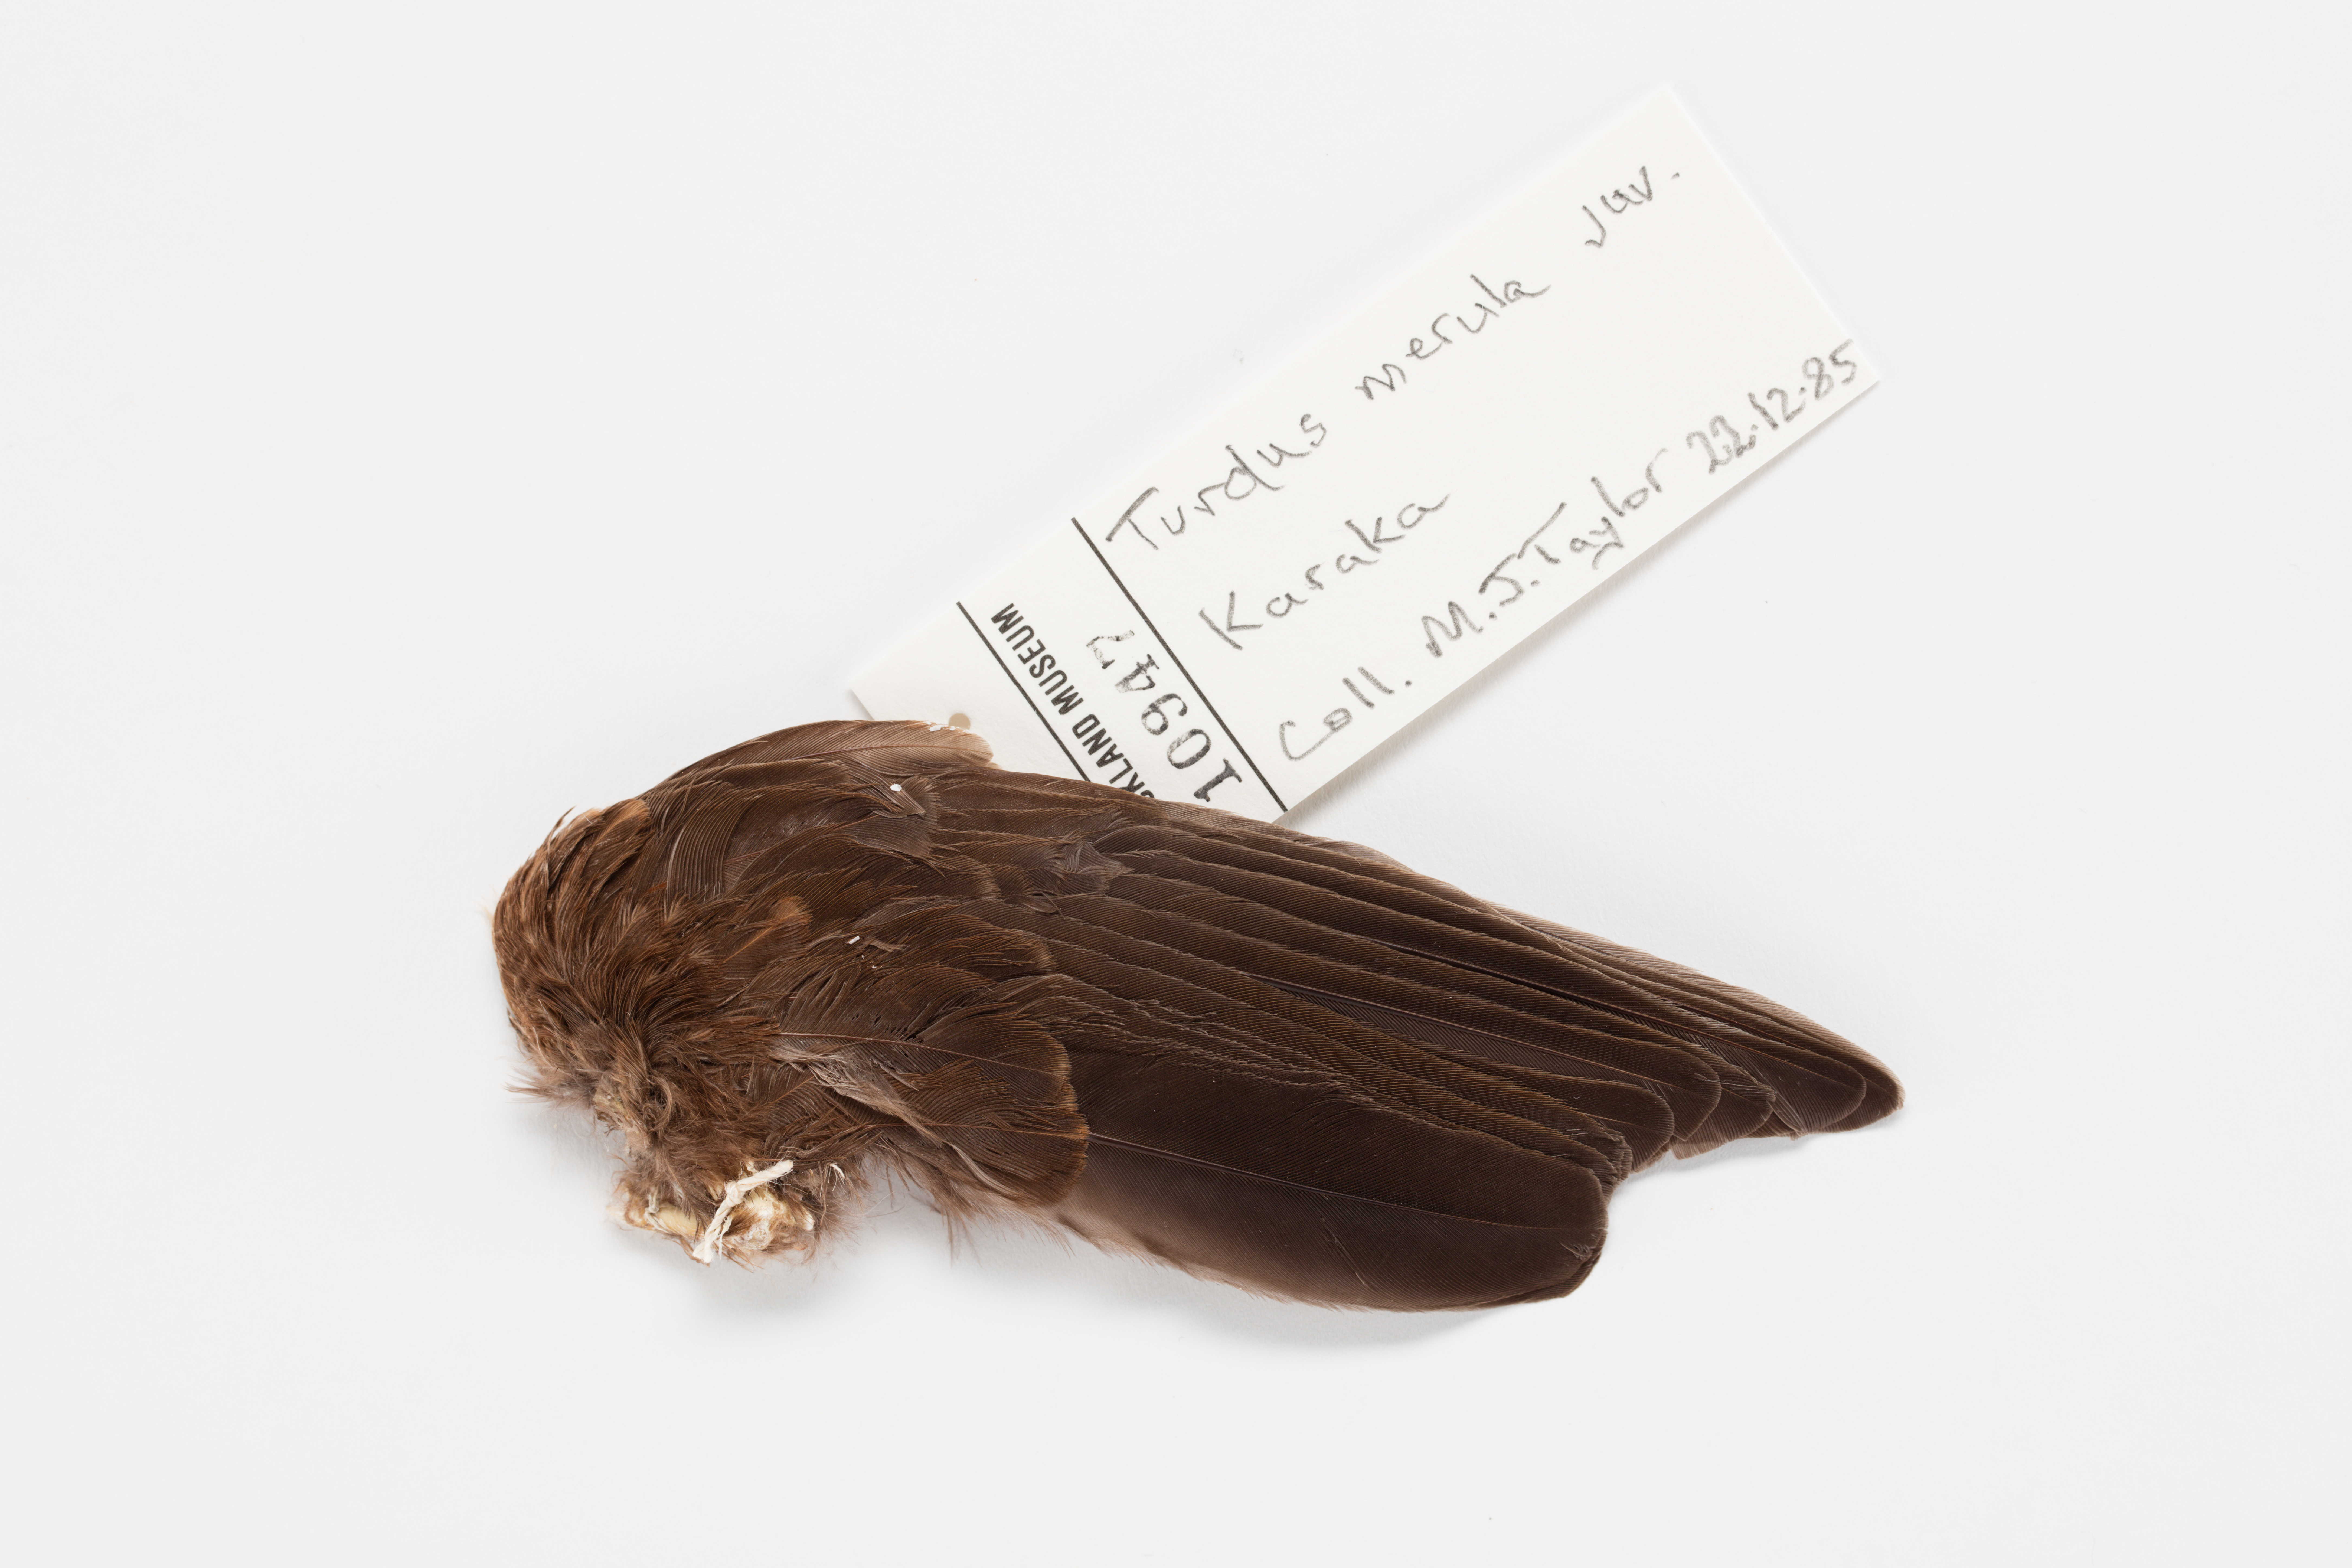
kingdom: Animalia
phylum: Chordata
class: Aves
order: Passeriformes
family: Turdidae
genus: Turdus
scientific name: Turdus merula
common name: Common blackbird
